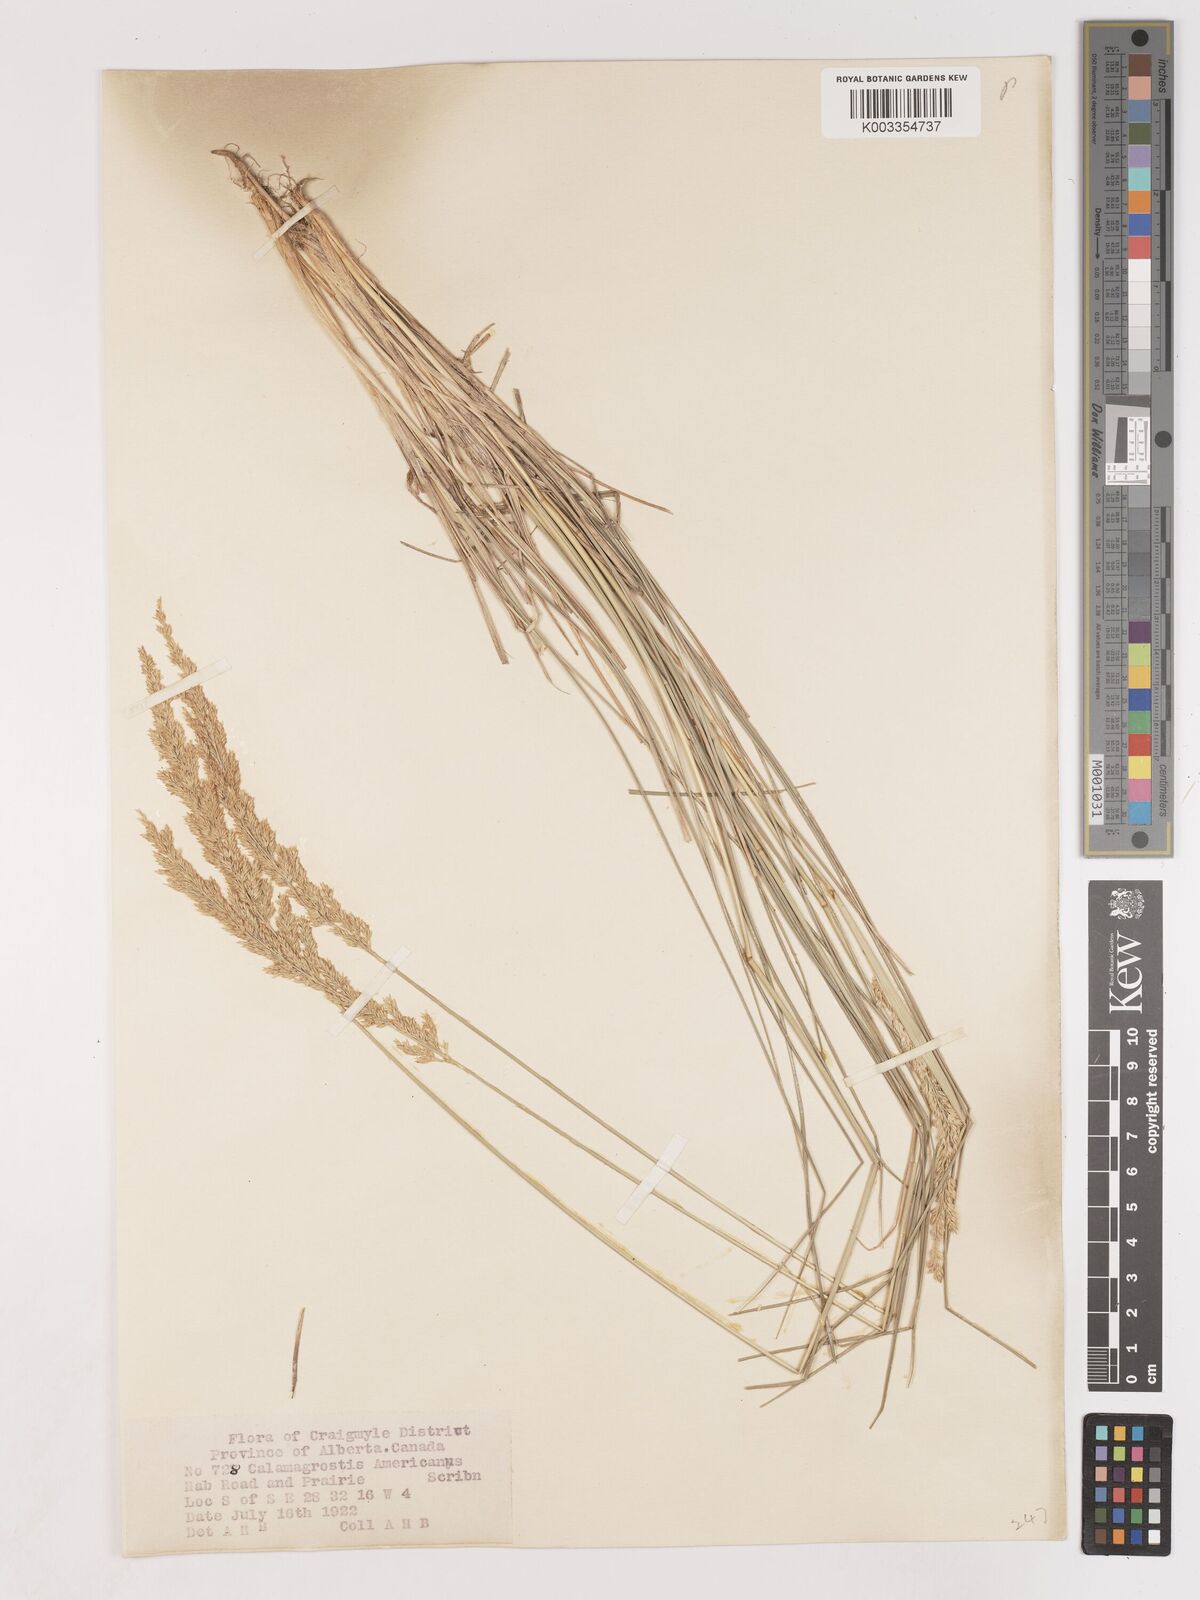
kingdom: Plantae
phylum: Tracheophyta
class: Liliopsida
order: Poales
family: Poaceae
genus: Cinnagrostis
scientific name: Cinnagrostis recta
